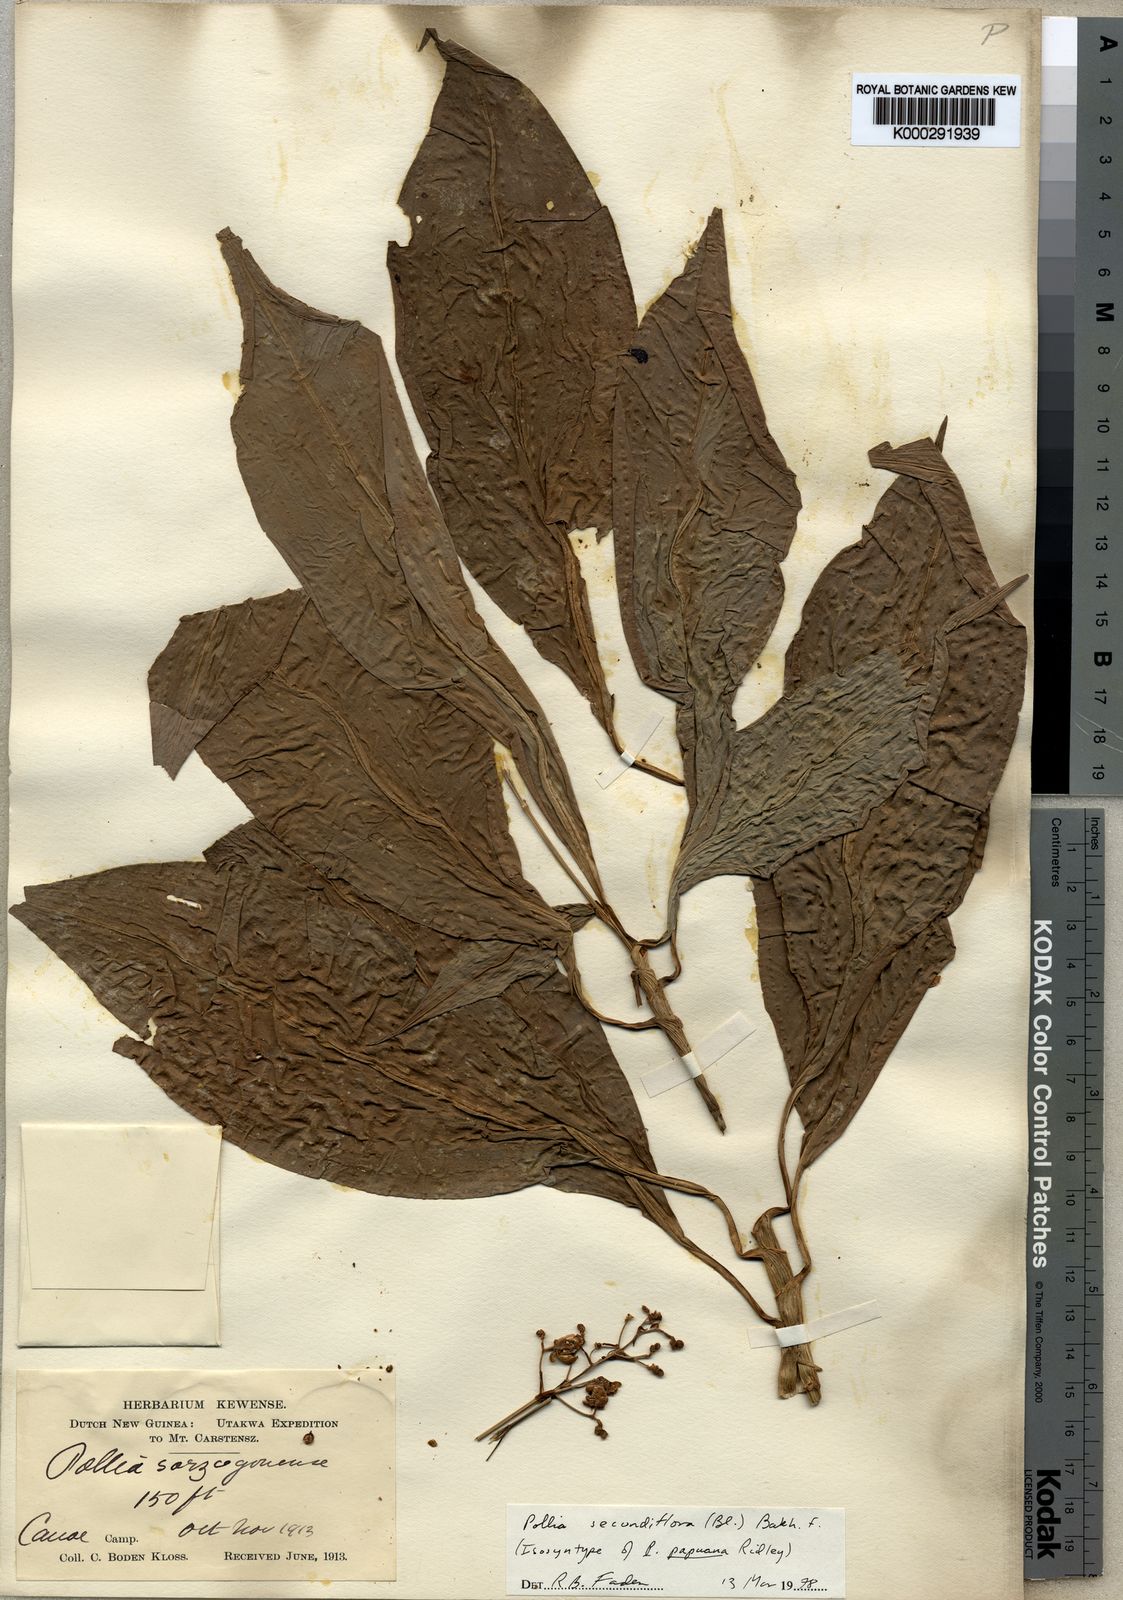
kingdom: Plantae
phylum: Tracheophyta
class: Liliopsida
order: Commelinales
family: Commelinaceae
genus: Pollia
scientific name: Pollia secundiflora
